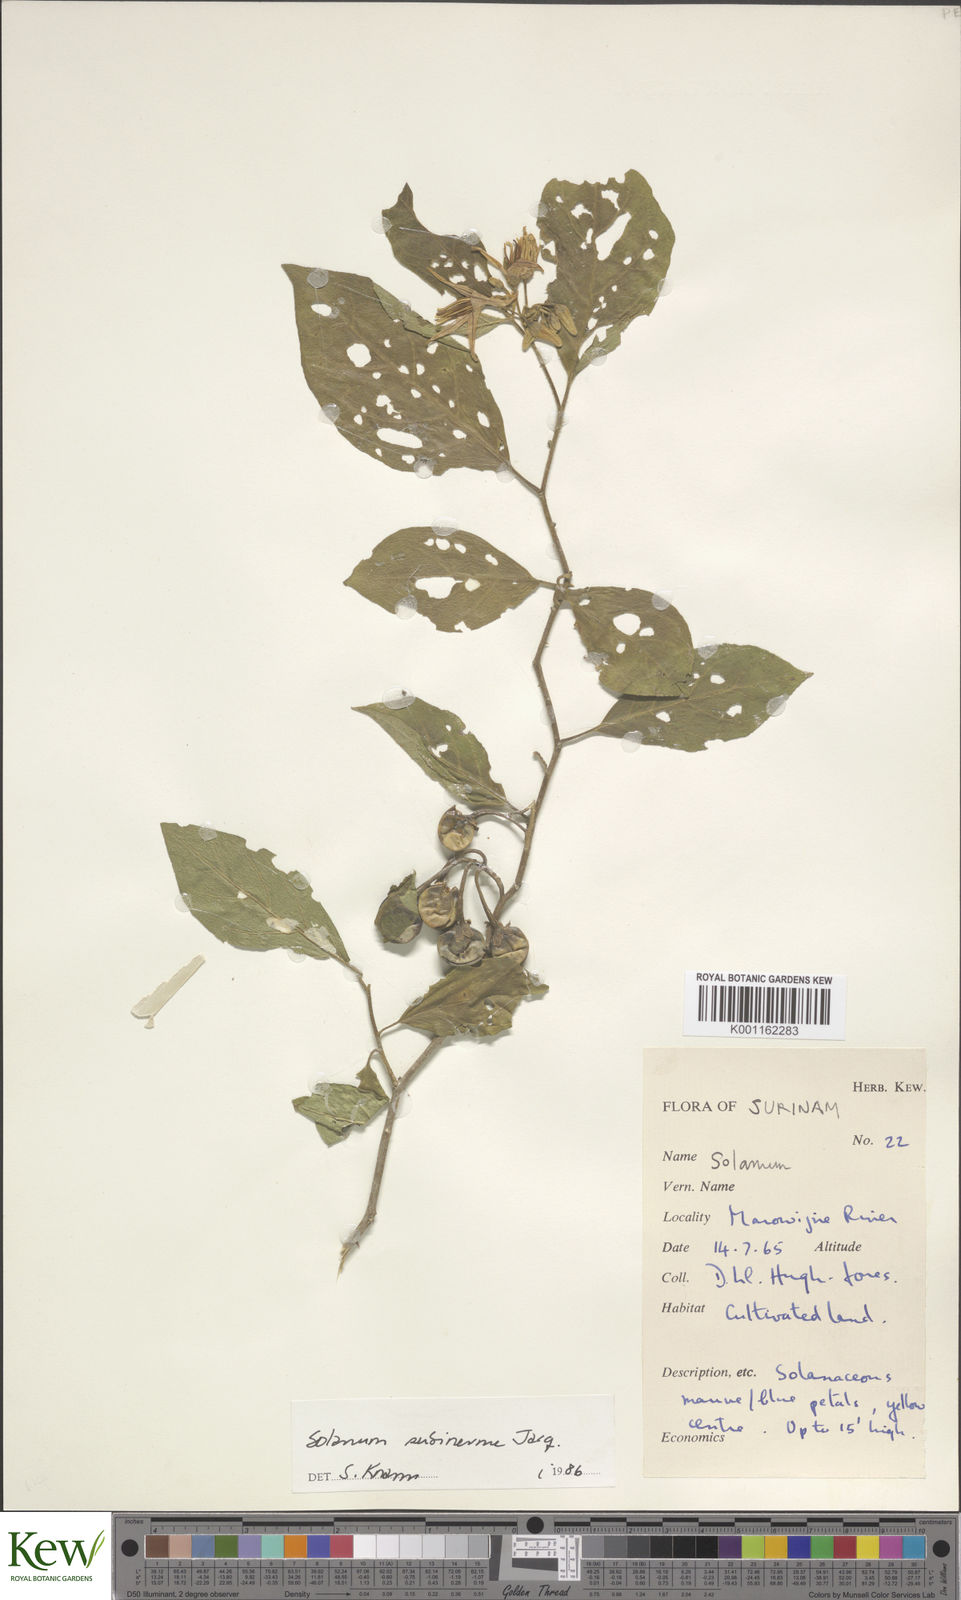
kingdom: Plantae
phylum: Tracheophyta
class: Magnoliopsida
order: Solanales
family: Solanaceae
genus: Solanum
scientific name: Solanum subinerme
